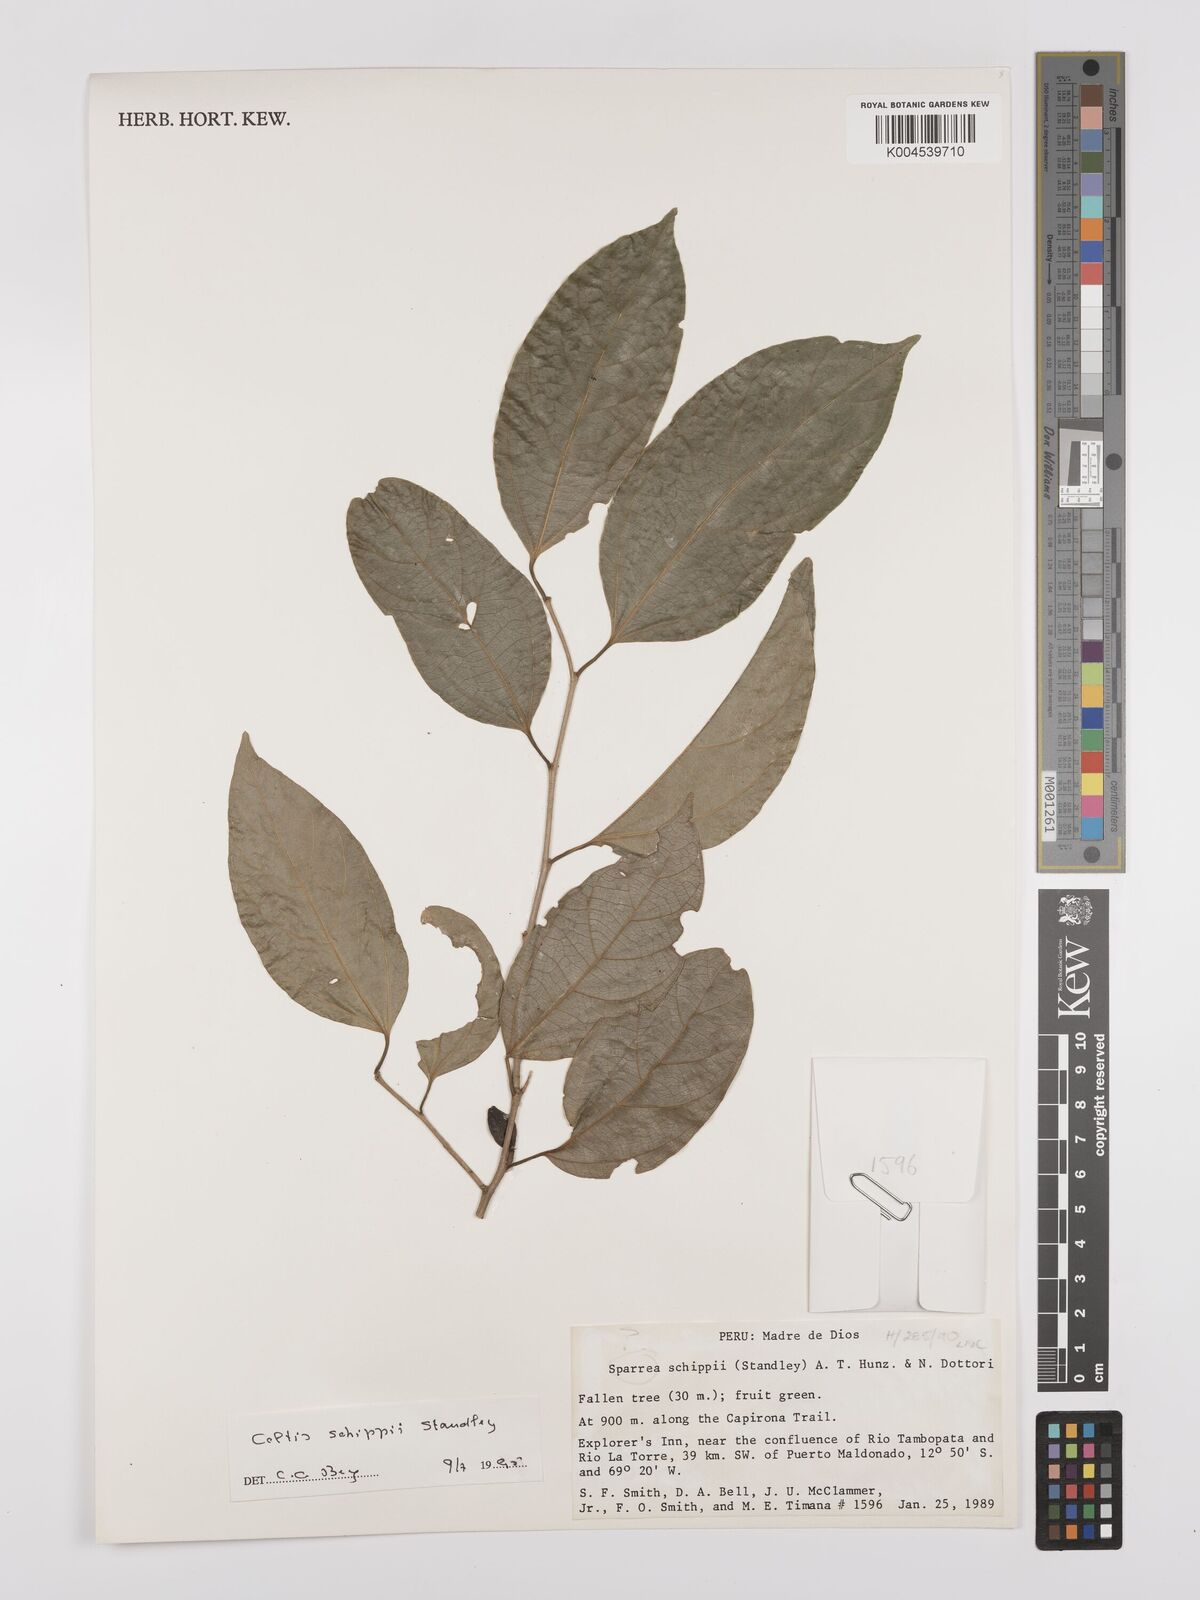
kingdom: Plantae
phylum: Tracheophyta
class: Magnoliopsida
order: Rosales
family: Cannabaceae
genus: Celtis
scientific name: Celtis schippii
